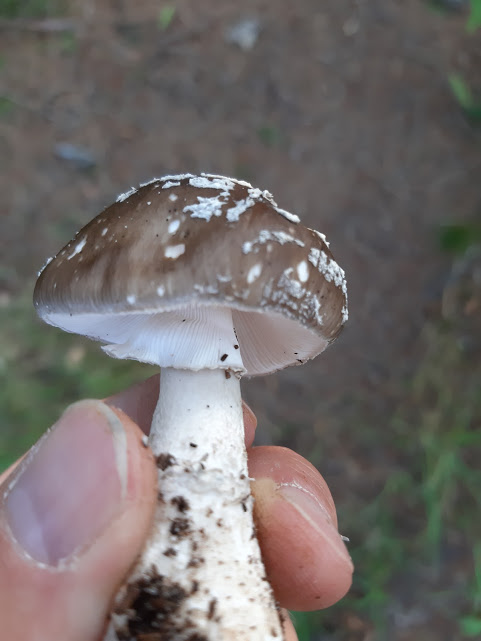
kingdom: Fungi
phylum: Basidiomycota
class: Agaricomycetes
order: Agaricales
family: Amanitaceae
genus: Amanita
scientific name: Amanita
